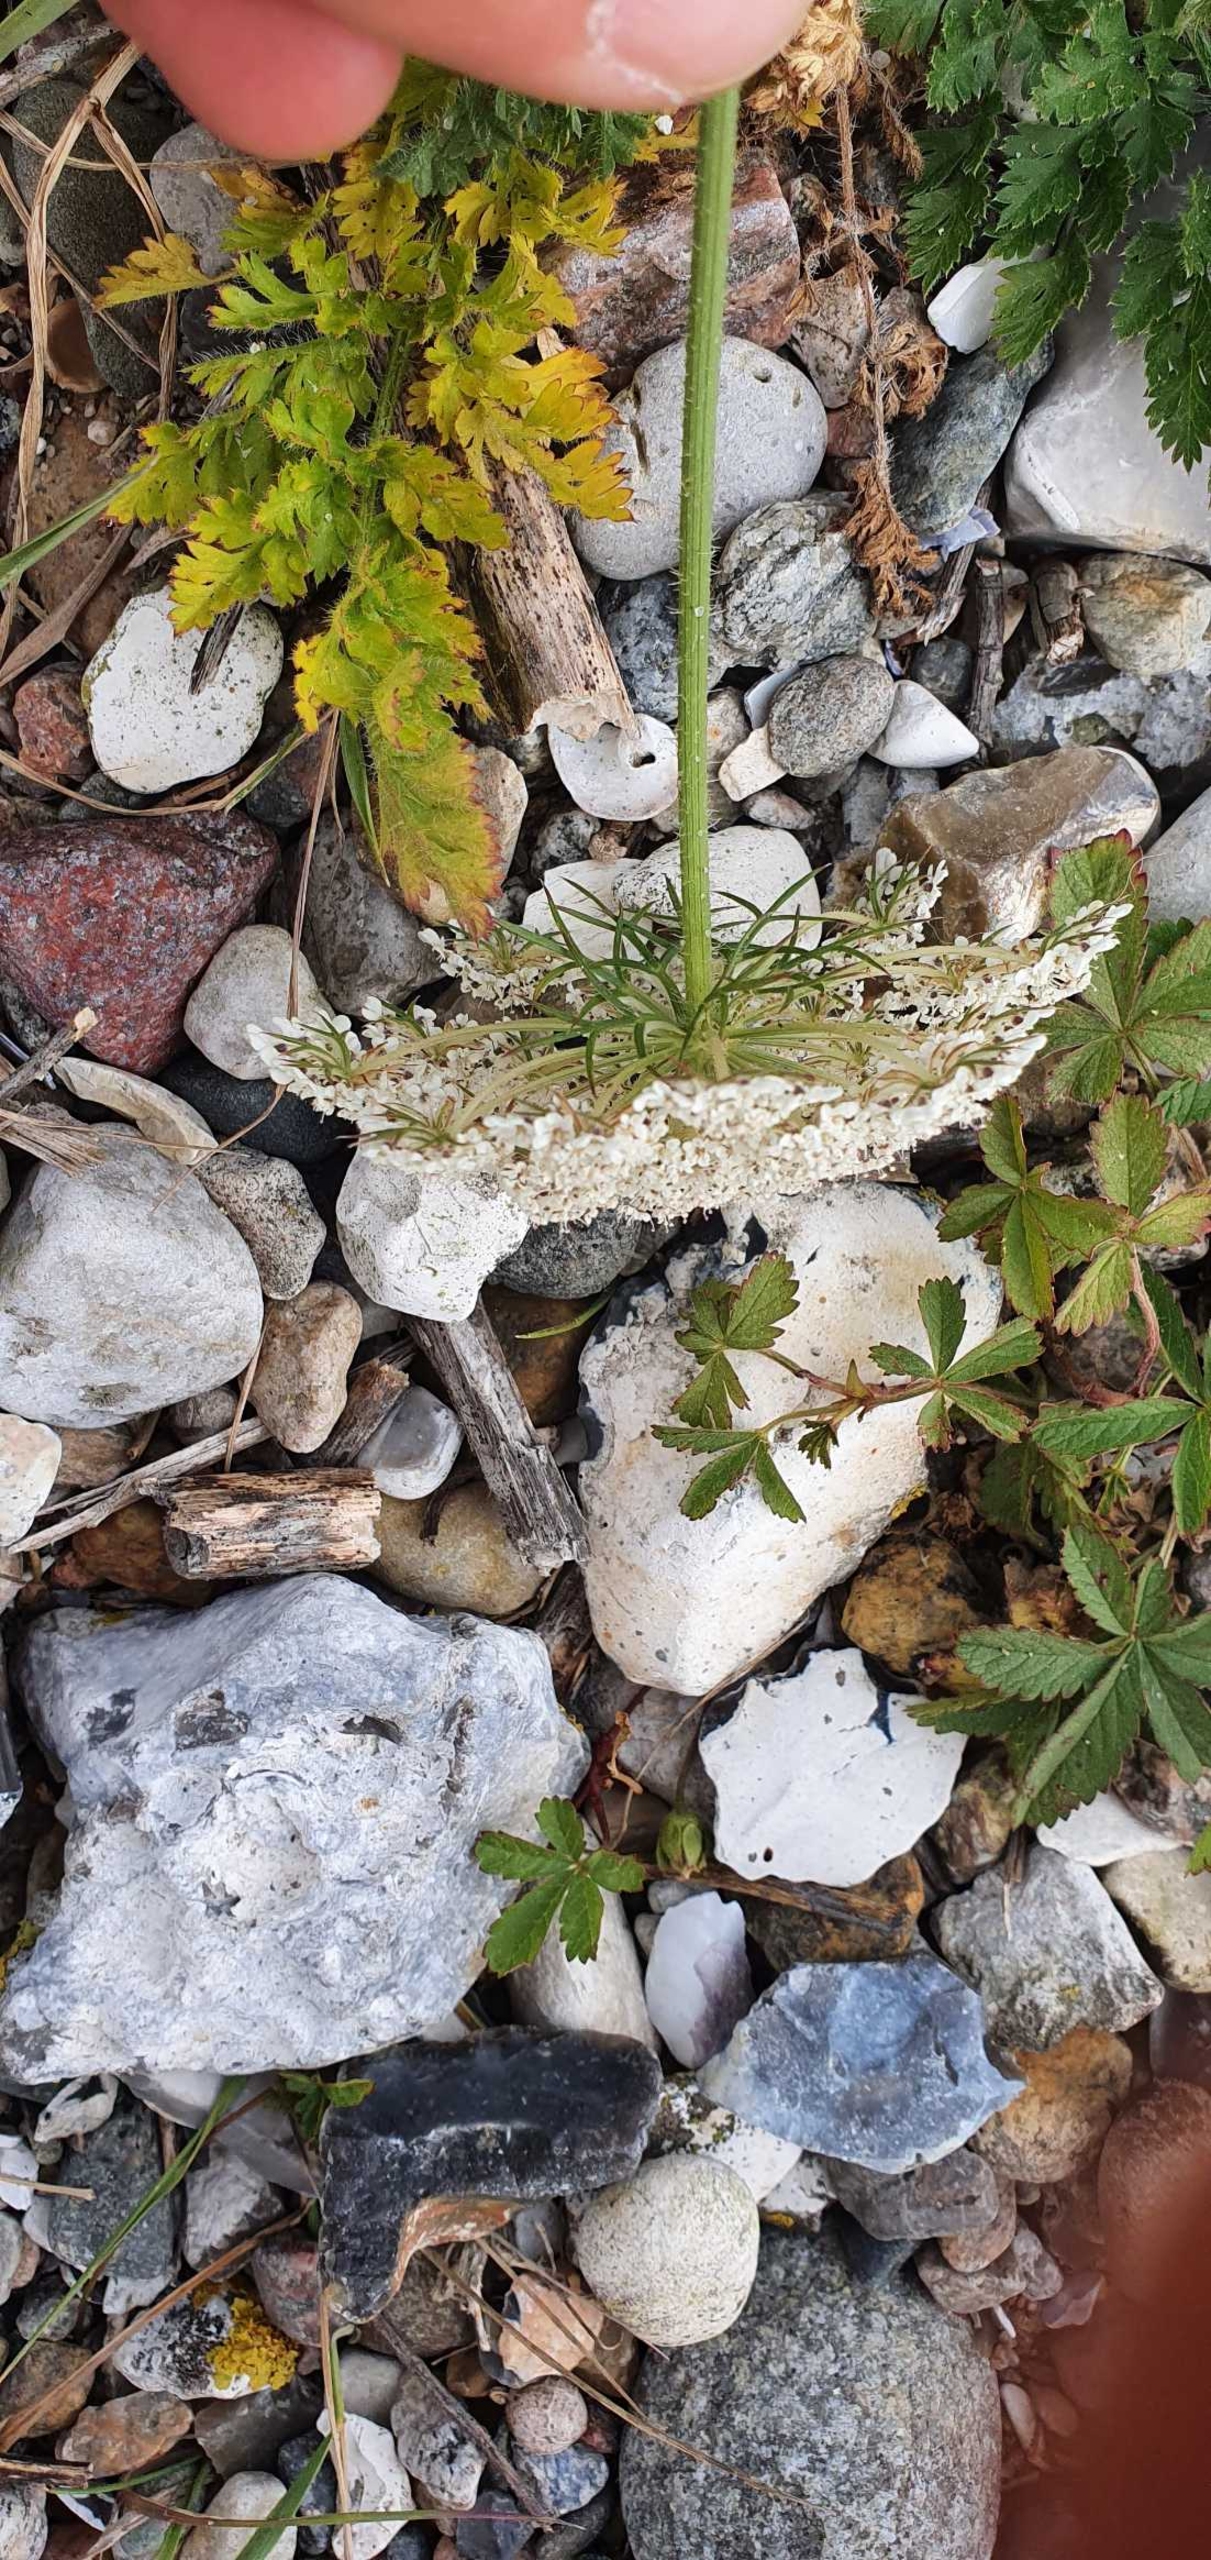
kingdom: Plantae
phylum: Tracheophyta
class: Magnoliopsida
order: Apiales
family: Apiaceae
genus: Daucus
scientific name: Daucus carota
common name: Gulerod
